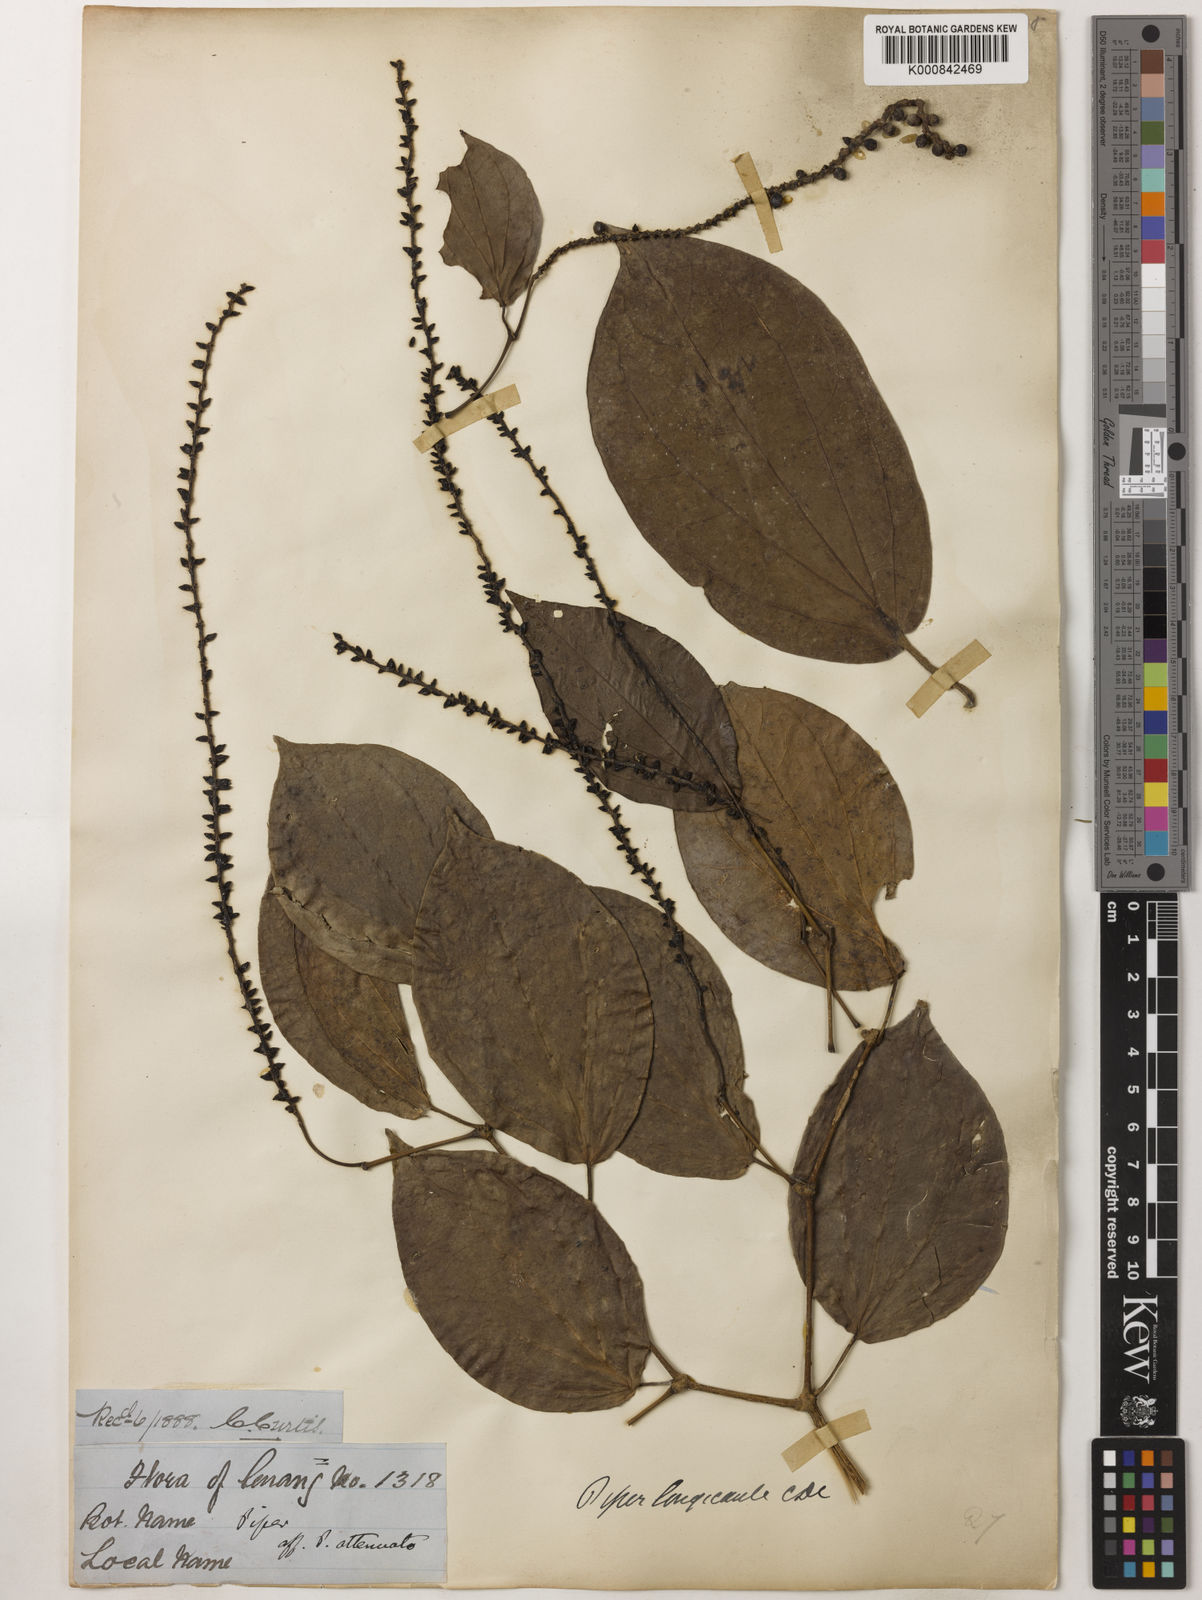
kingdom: Plantae
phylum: Tracheophyta
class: Magnoliopsida
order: Piperales
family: Piperaceae
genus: Piper
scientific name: Piper longicaule
